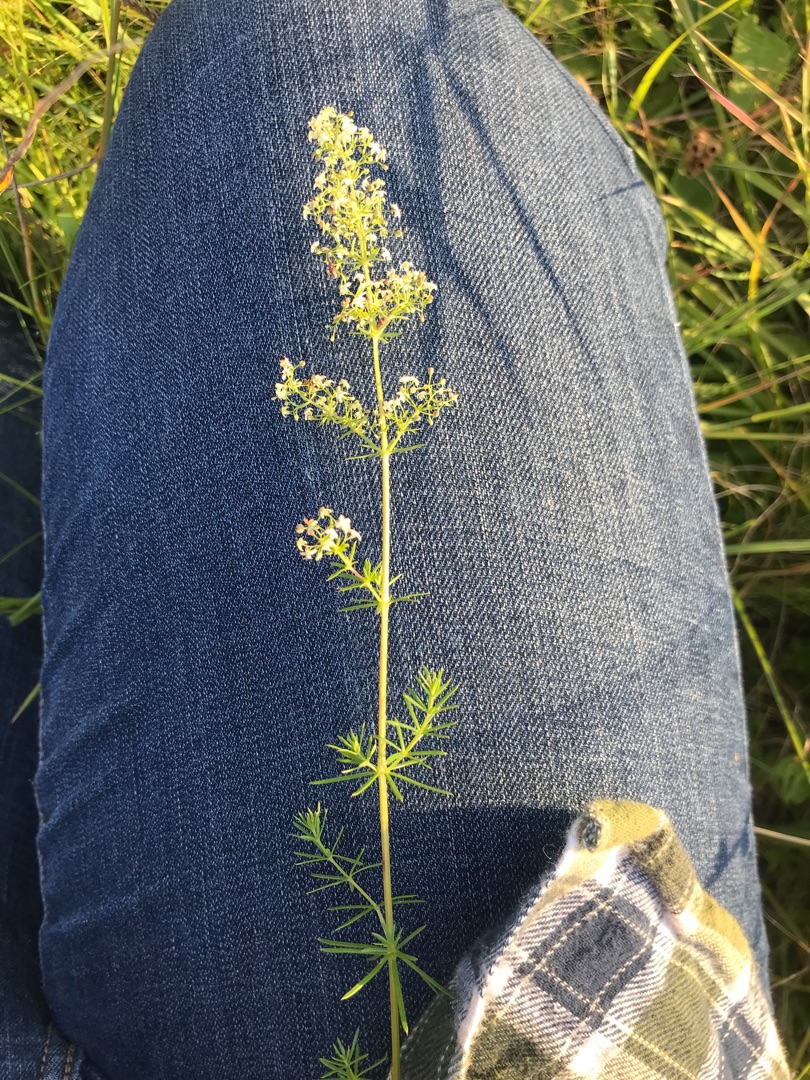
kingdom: Plantae
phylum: Tracheophyta
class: Magnoliopsida
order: Gentianales
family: Rubiaceae
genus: Galium
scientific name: Galium mollugo
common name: Hvid snerre
